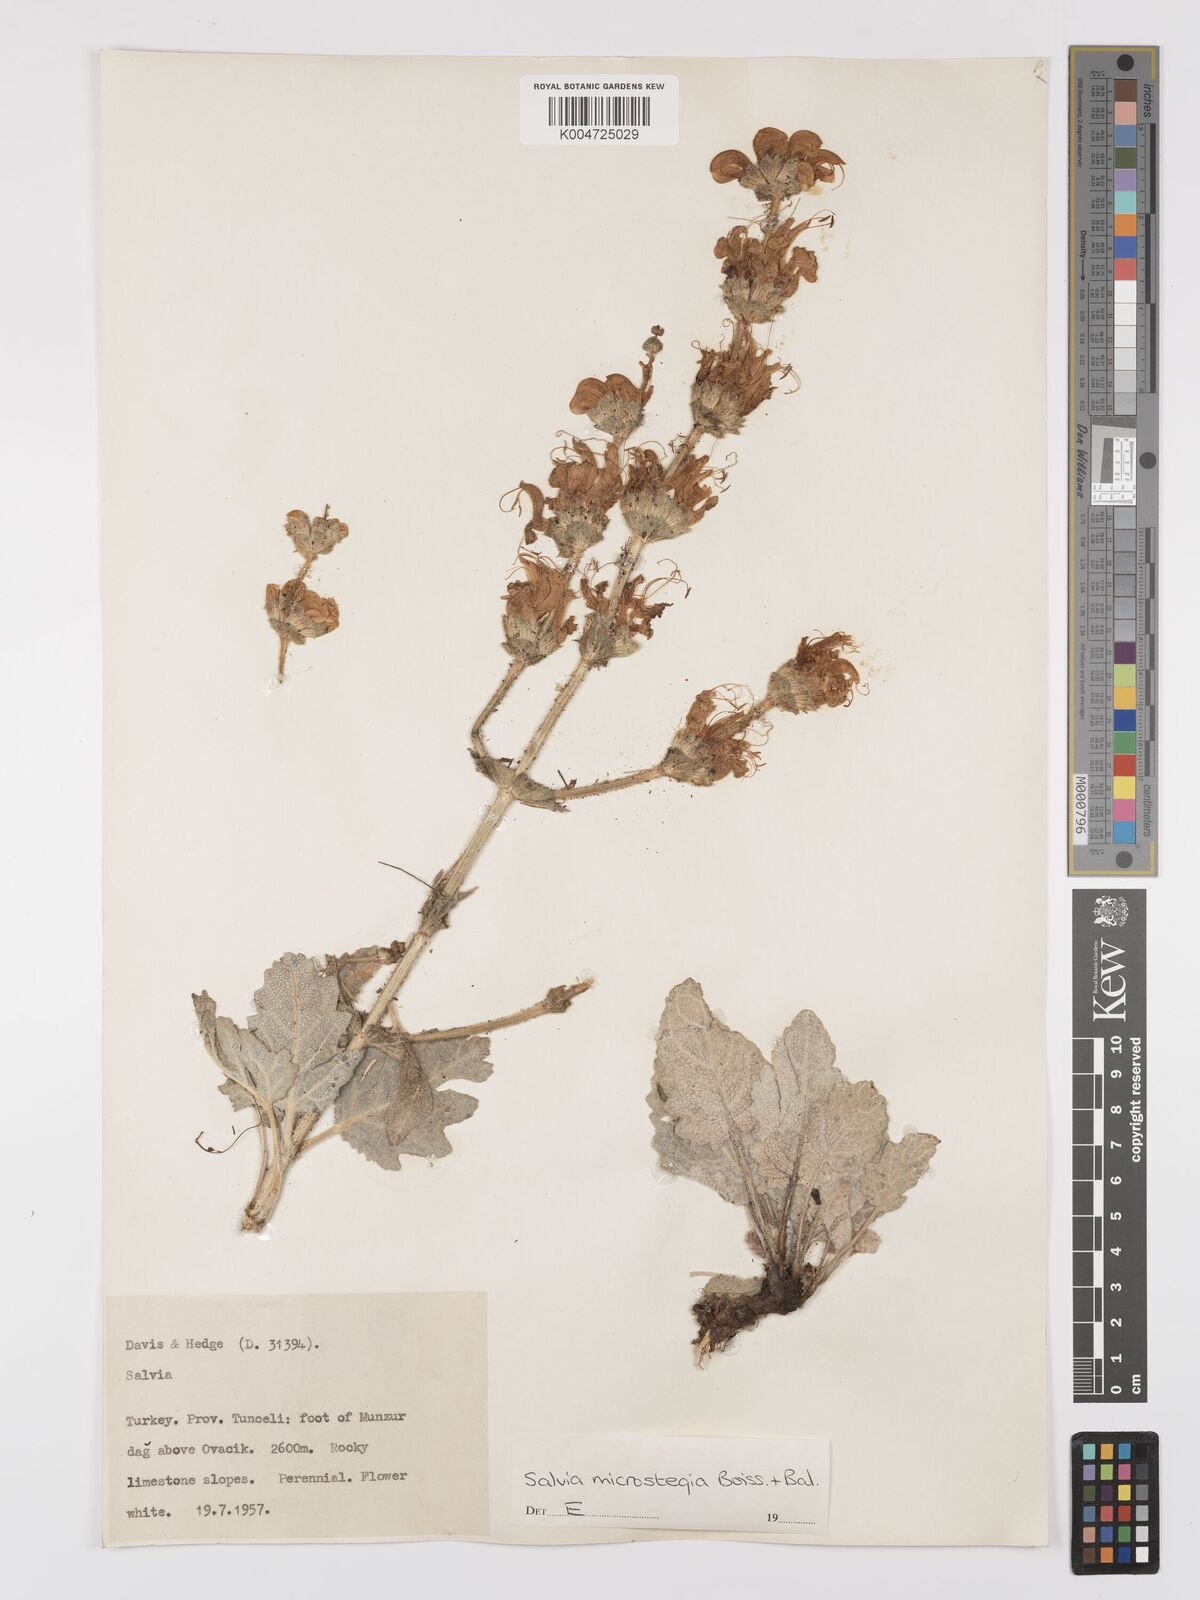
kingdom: Plantae
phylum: Tracheophyta
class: Magnoliopsida
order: Lamiales
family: Lamiaceae
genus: Salvia
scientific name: Salvia microstegia
